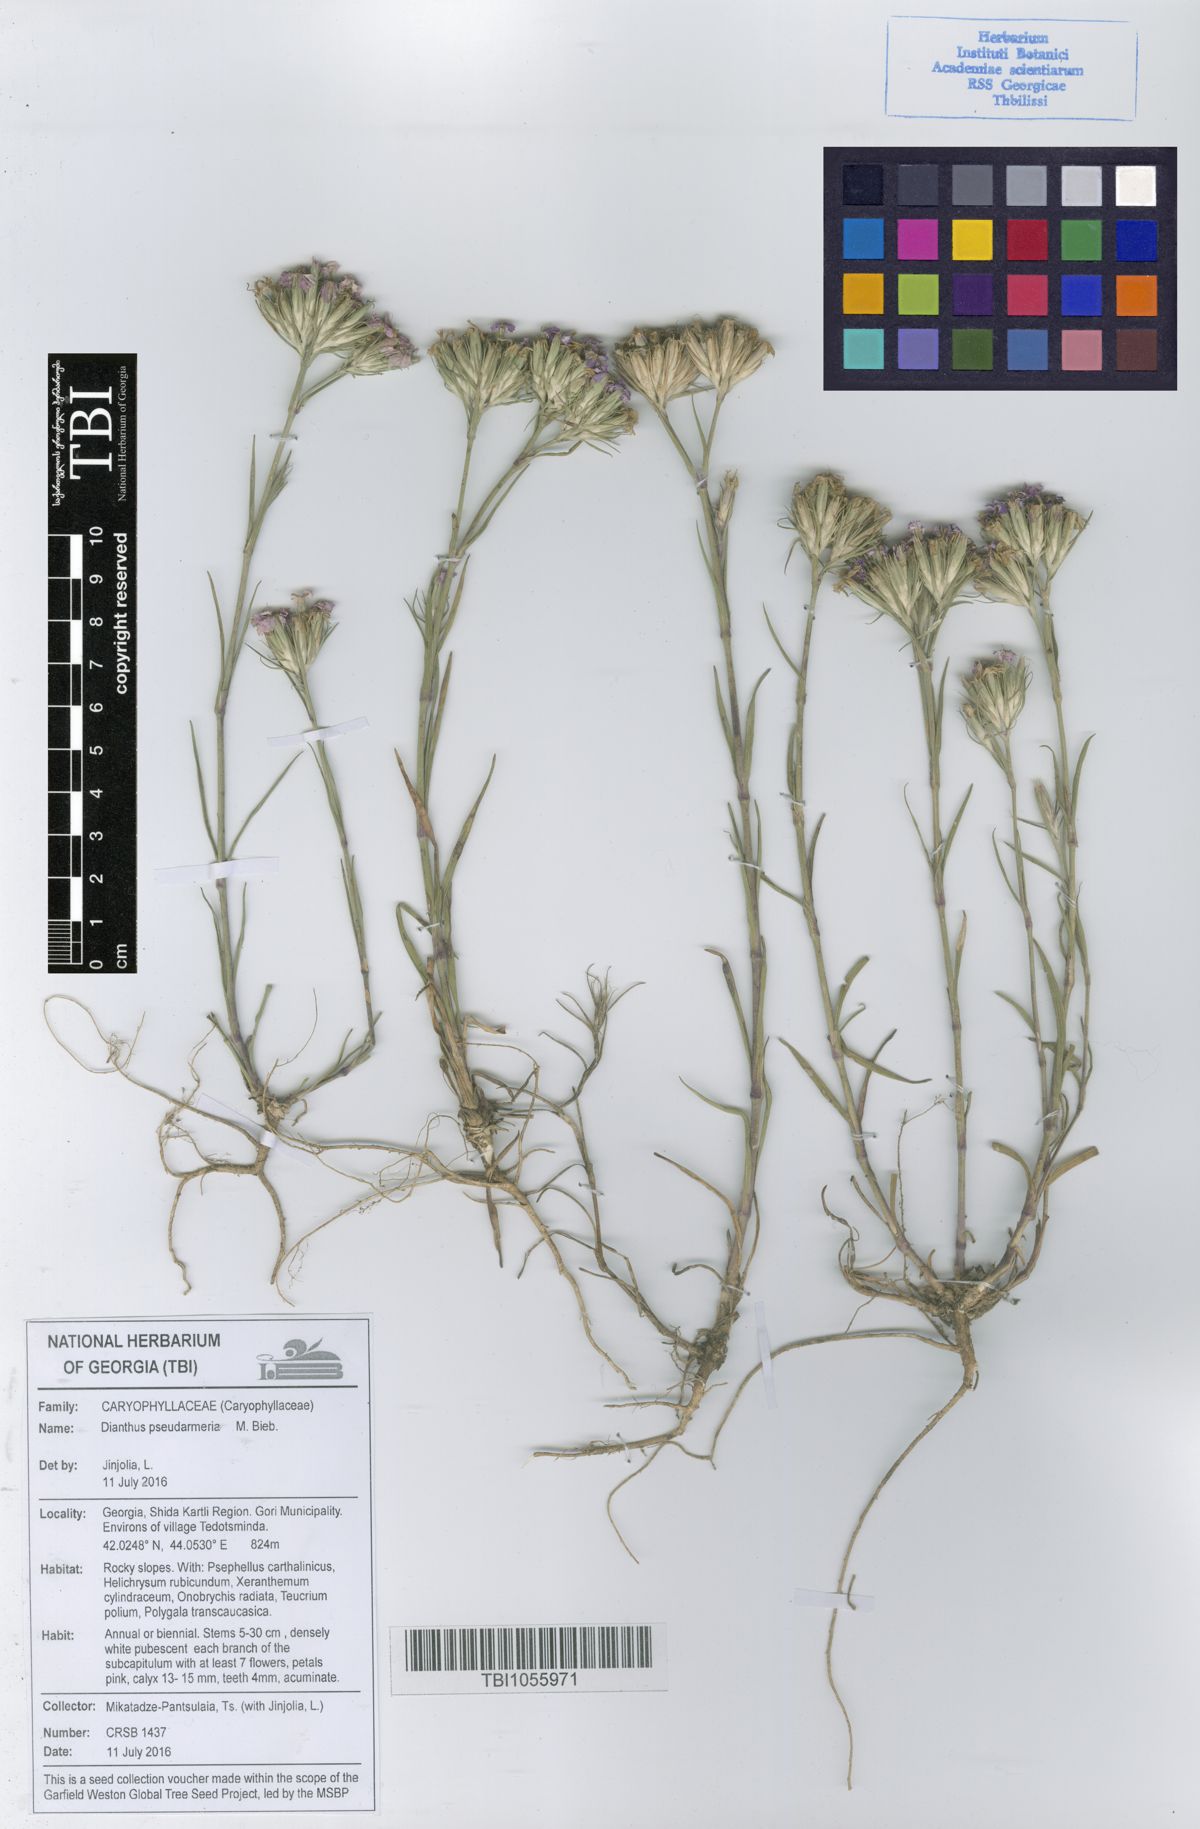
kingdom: Plantae
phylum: Tracheophyta
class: Magnoliopsida
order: Caryophyllales
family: Caryophyllaceae
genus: Dianthus
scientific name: Dianthus pseudarmeria
